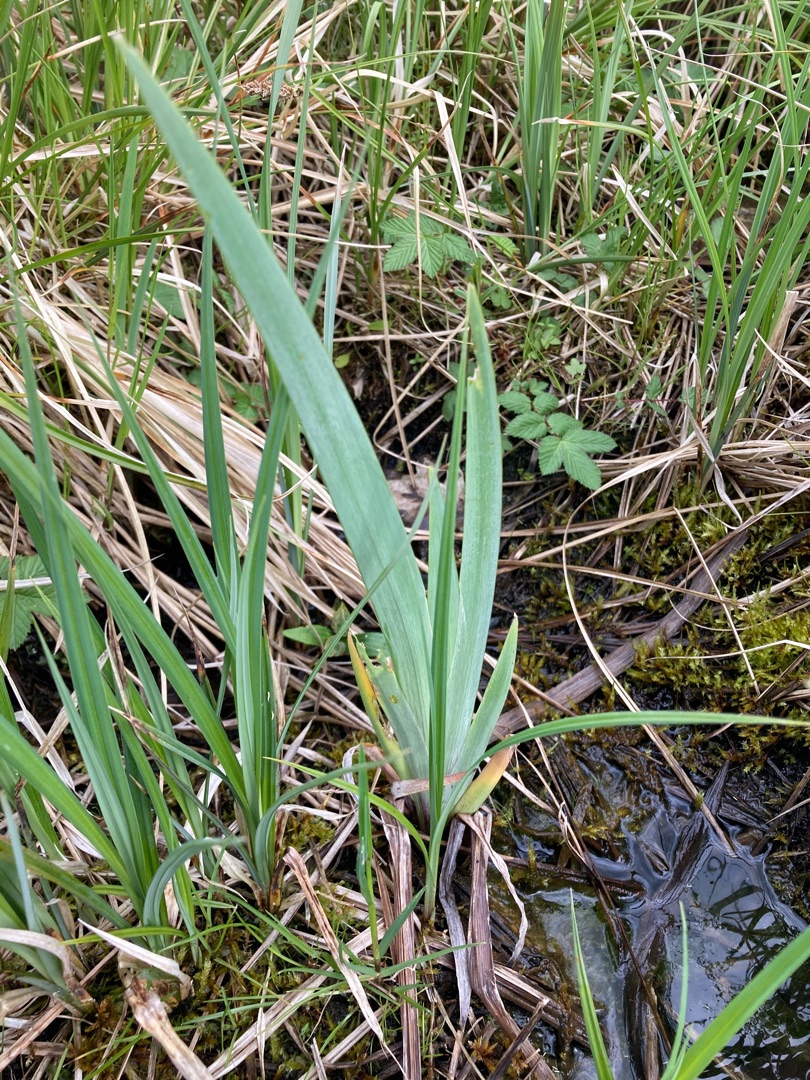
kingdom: Plantae
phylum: Tracheophyta
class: Liliopsida
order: Asparagales
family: Iridaceae
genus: Iris
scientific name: Iris pseudacorus
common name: Gul iris
